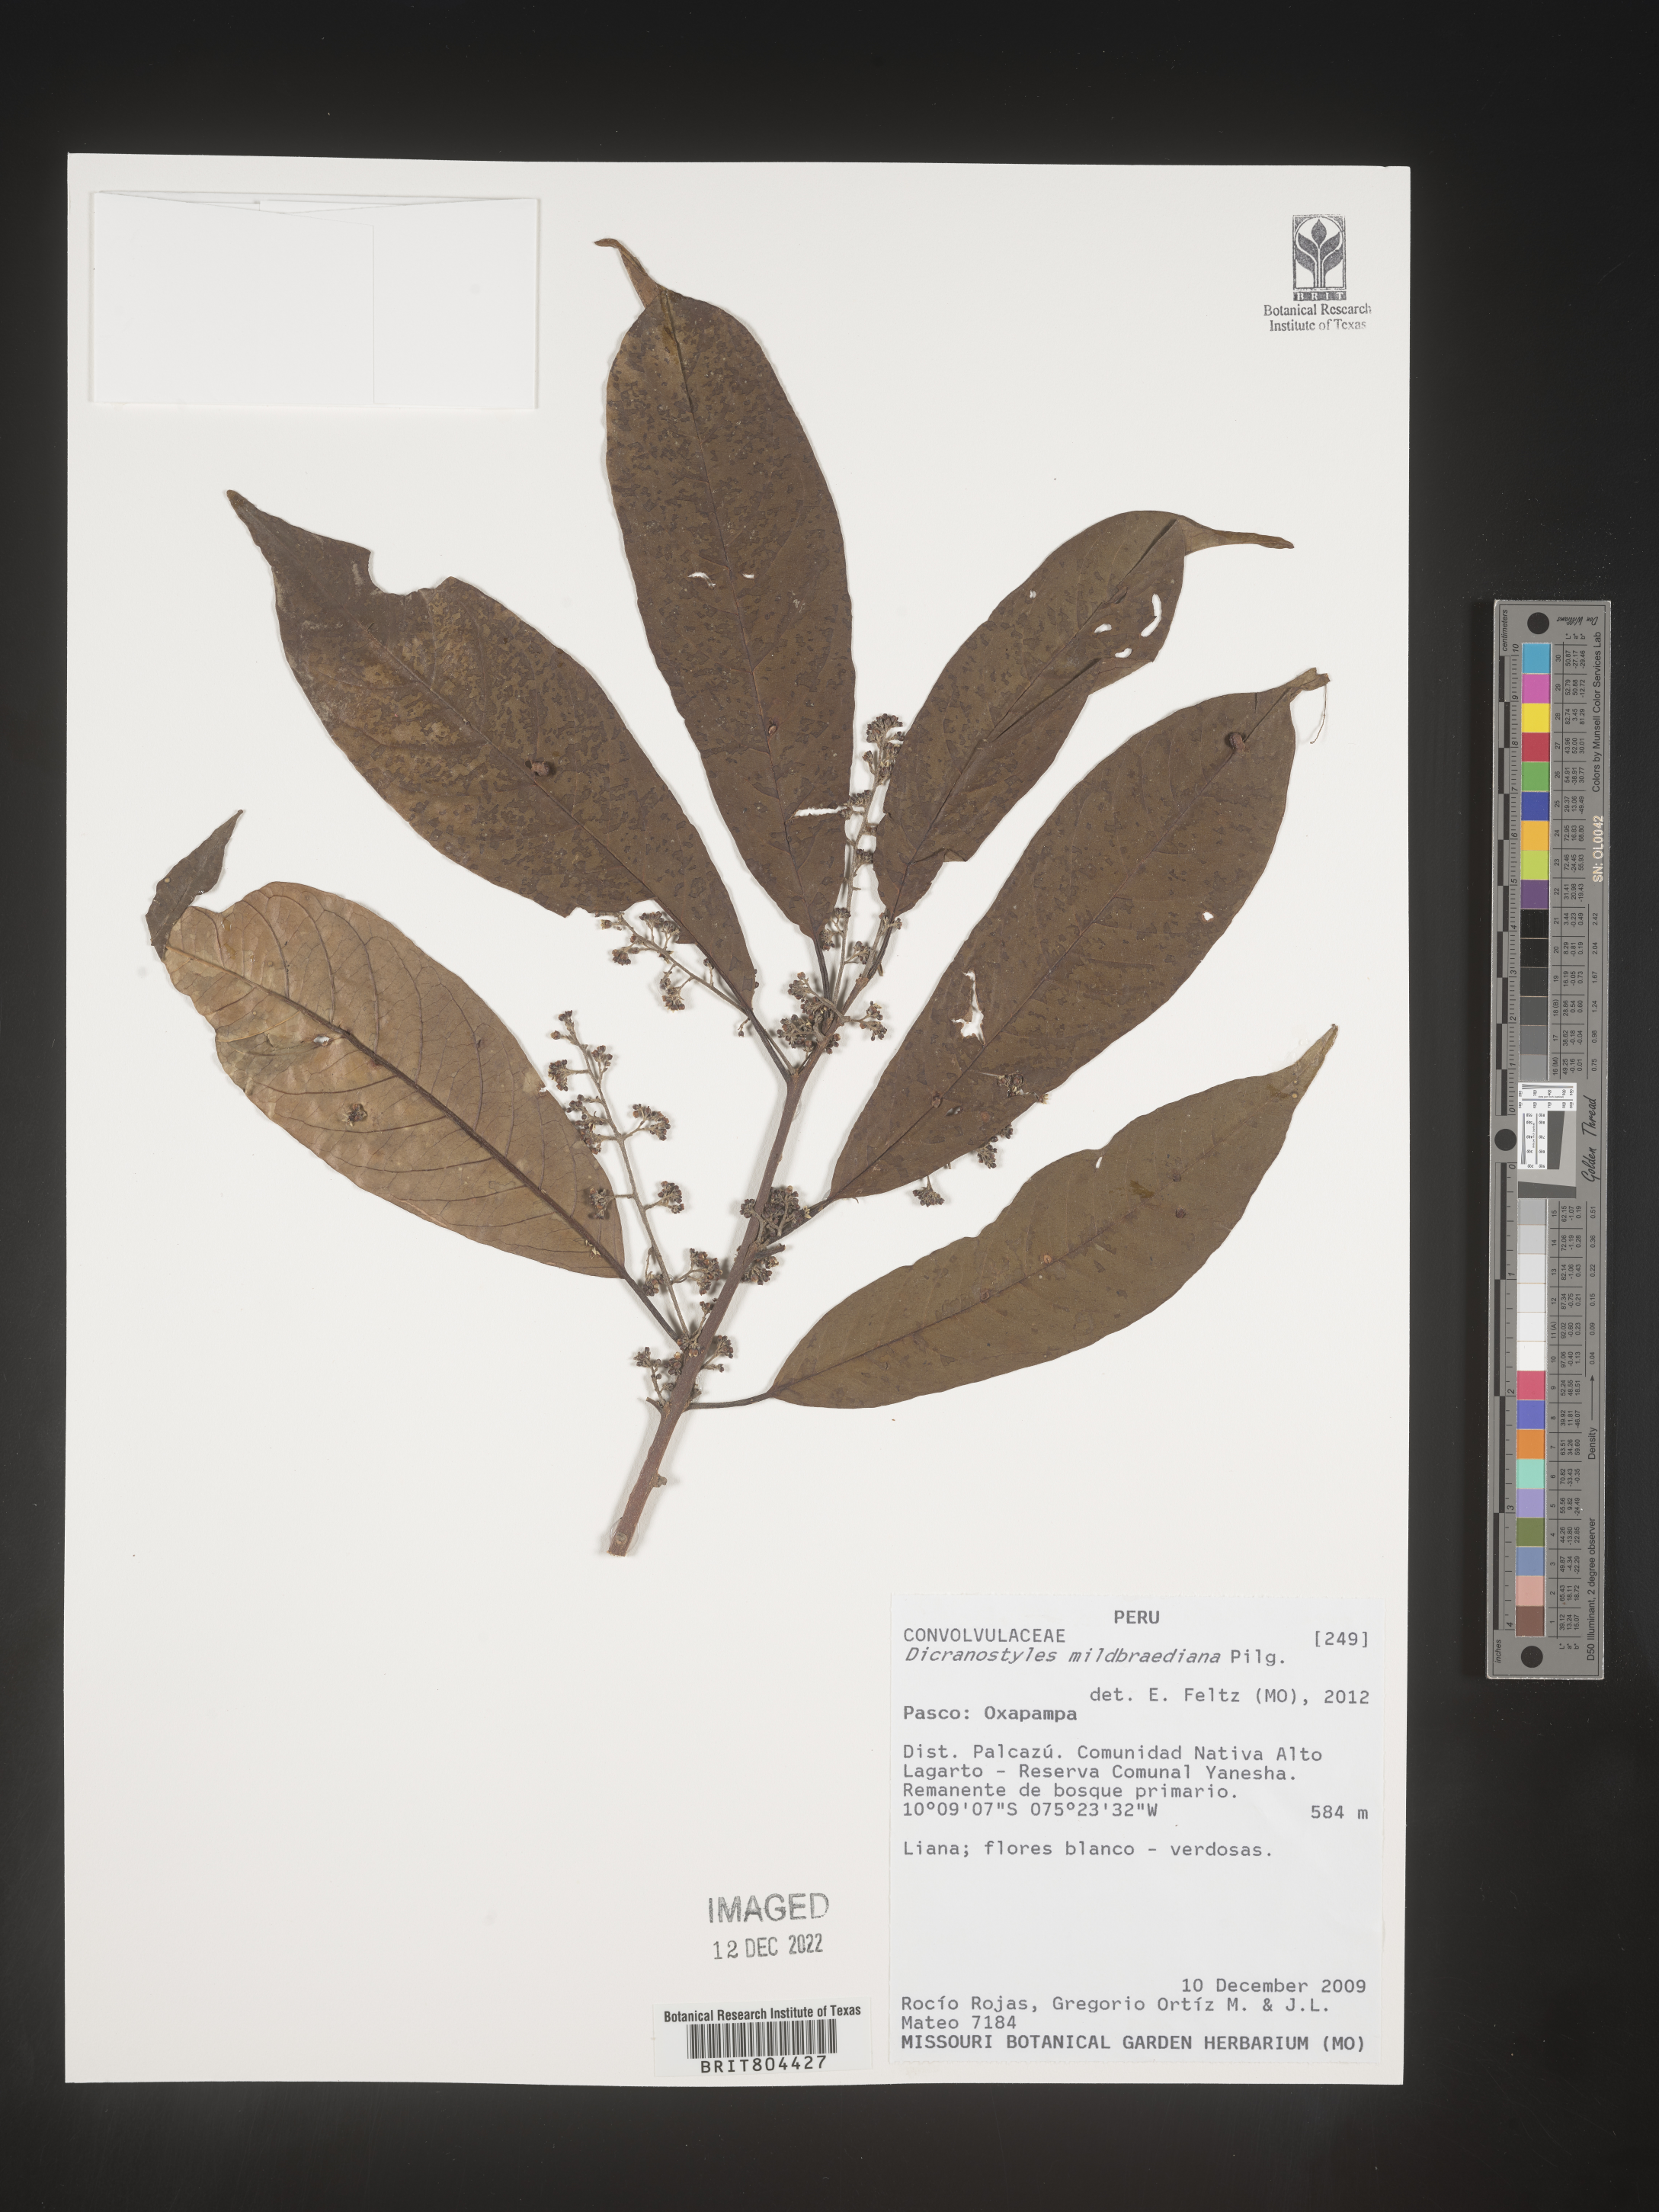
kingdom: Plantae
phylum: Tracheophyta
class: Magnoliopsida
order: Solanales
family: Convolvulaceae
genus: Dicranostyles
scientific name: Dicranostyles
